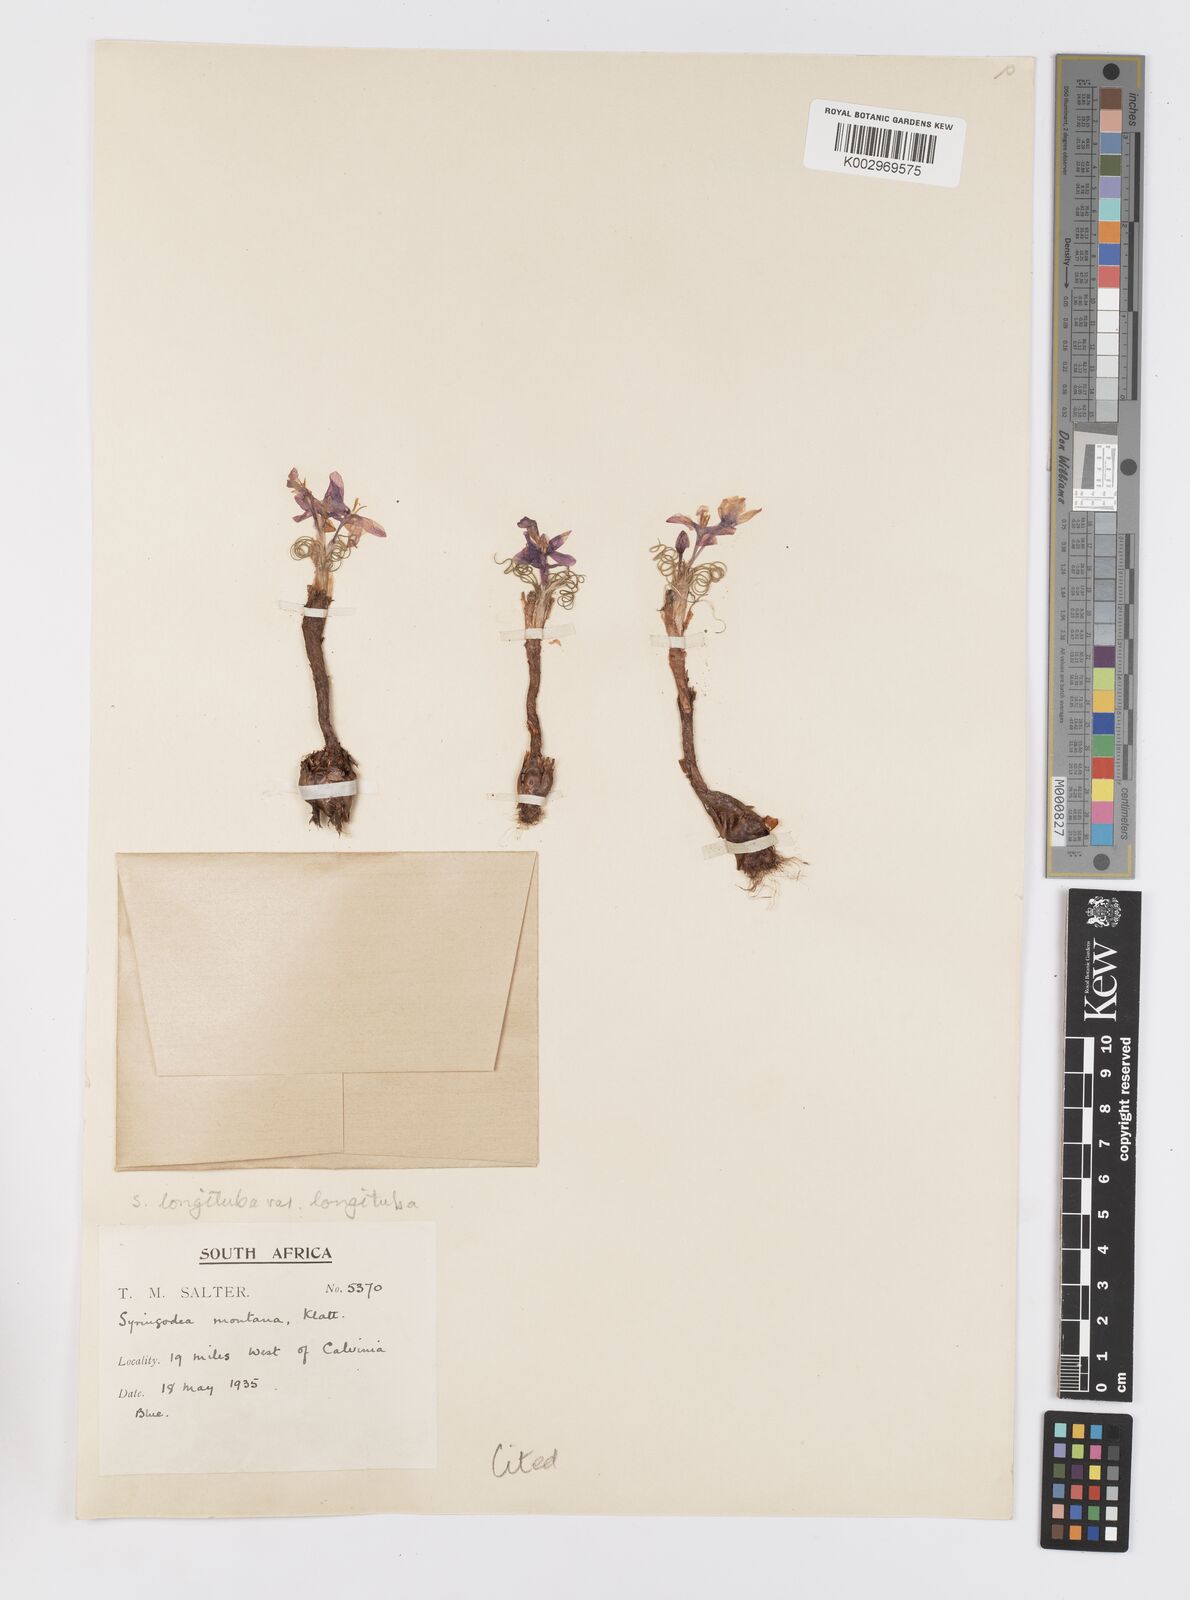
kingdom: Plantae
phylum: Tracheophyta
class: Liliopsida
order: Asparagales
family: Iridaceae
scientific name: Iridaceae
